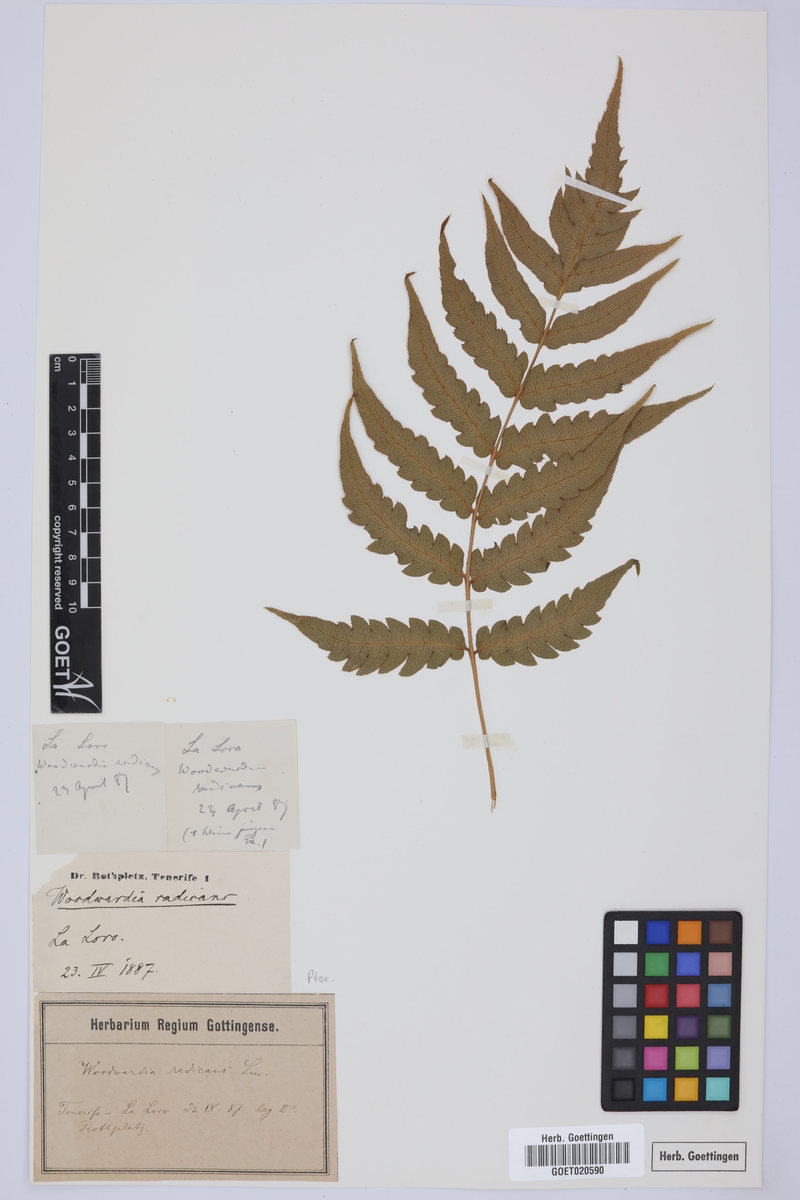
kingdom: Plantae
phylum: Tracheophyta
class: Polypodiopsida
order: Polypodiales
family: Blechnaceae
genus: Woodwardia
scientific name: Woodwardia radicans
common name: Rooting chainfern
